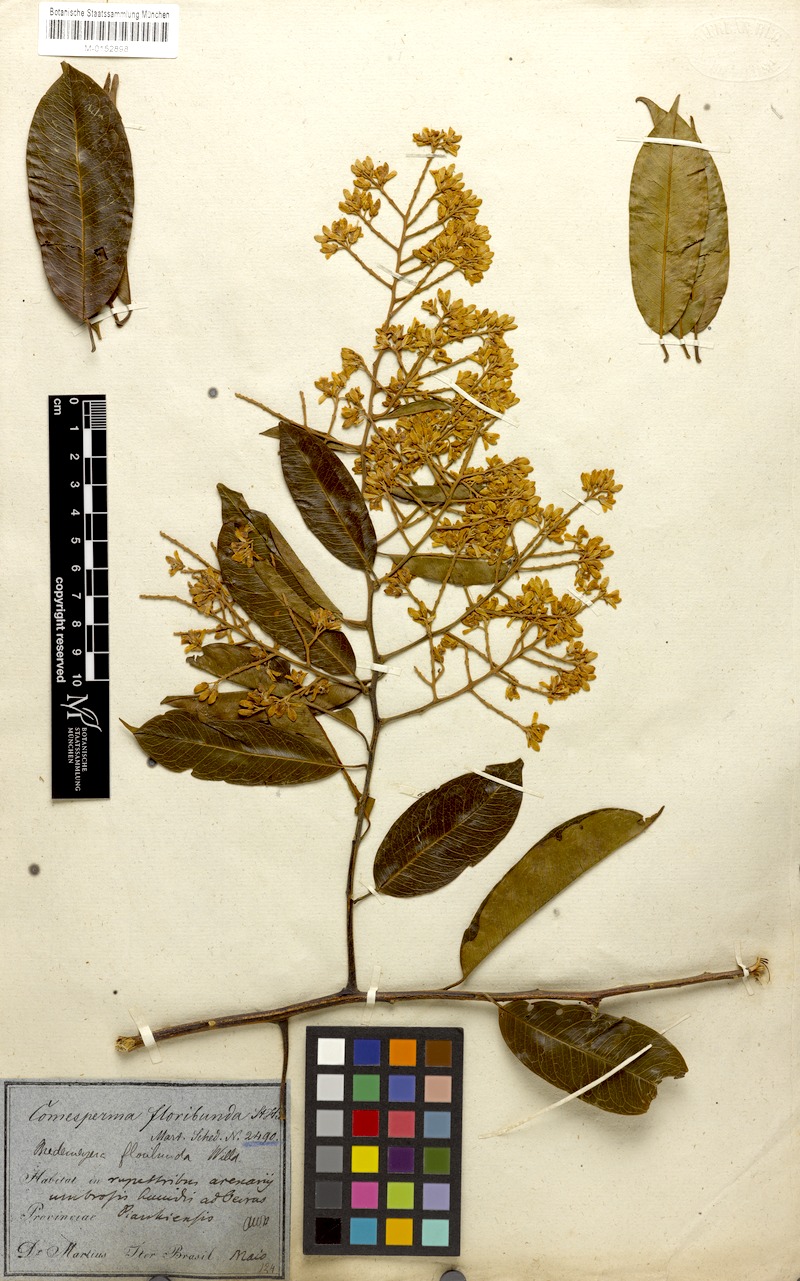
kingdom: Plantae
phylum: Tracheophyta
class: Magnoliopsida
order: Fabales
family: Polygalaceae
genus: Bredemeyera
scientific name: Bredemeyera floribunda
